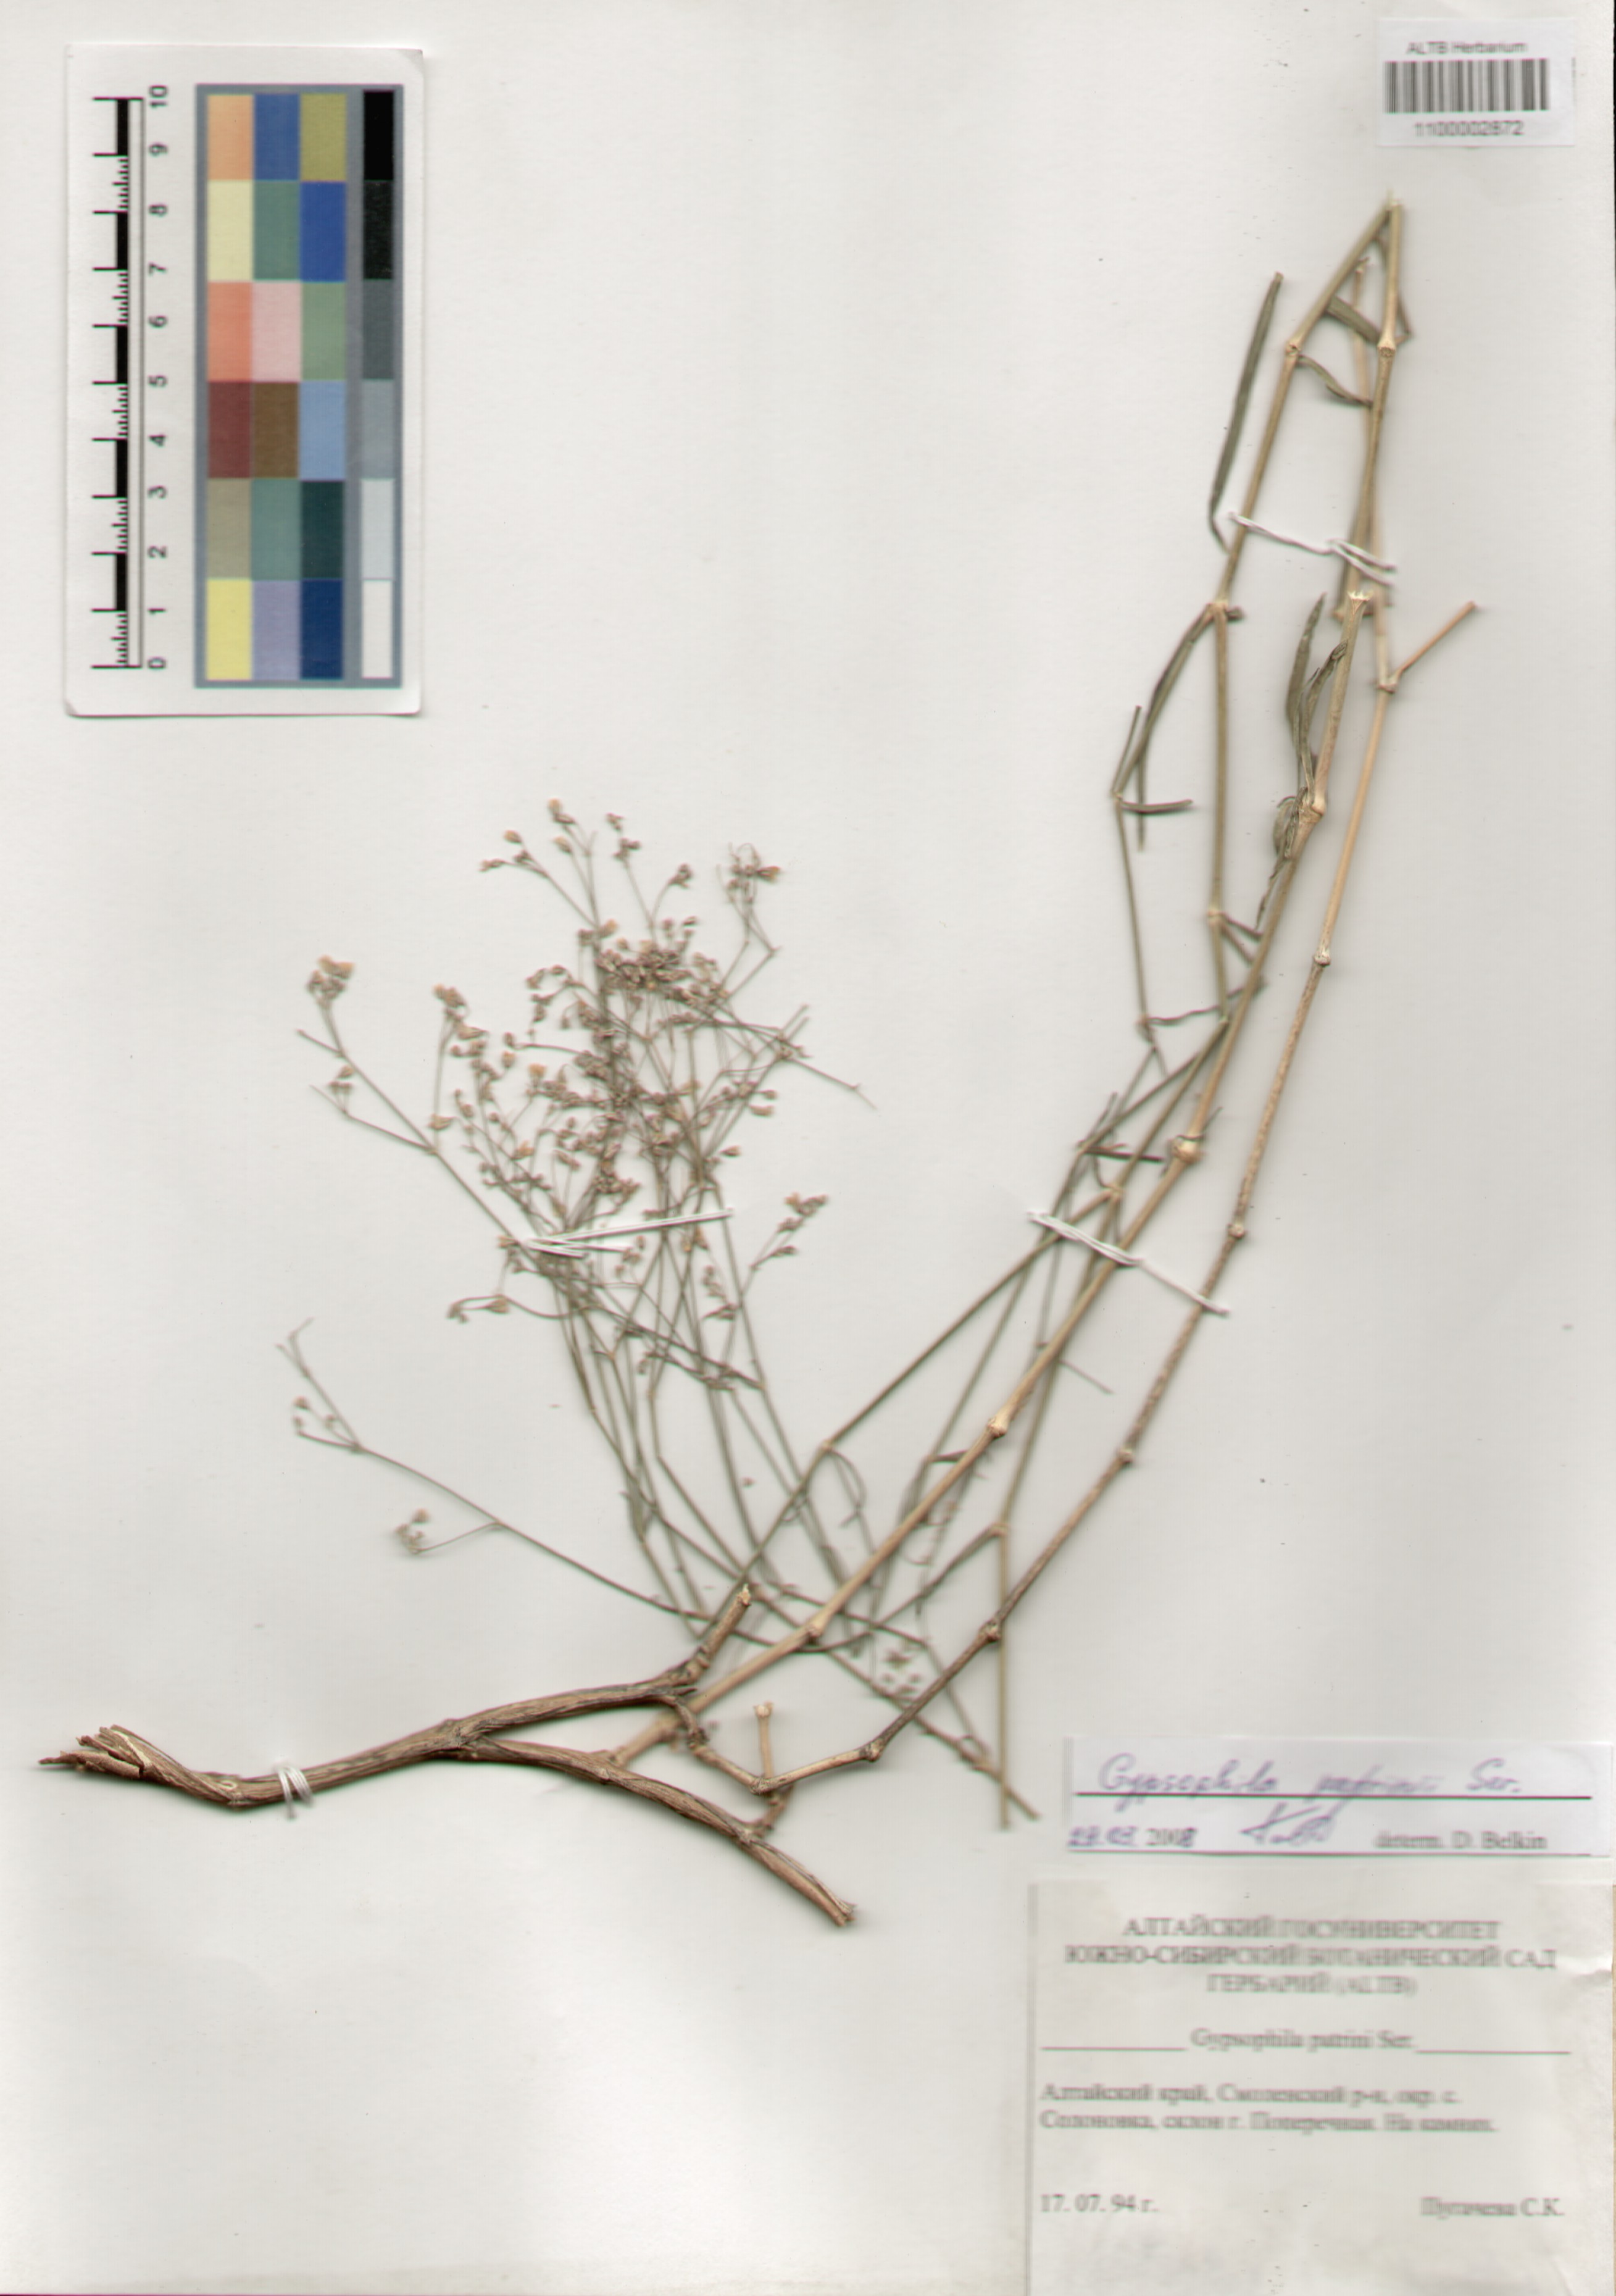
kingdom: Plantae
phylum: Tracheophyta
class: Magnoliopsida
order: Caryophyllales
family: Caryophyllaceae
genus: Gypsophila
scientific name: Gypsophila patrinii
